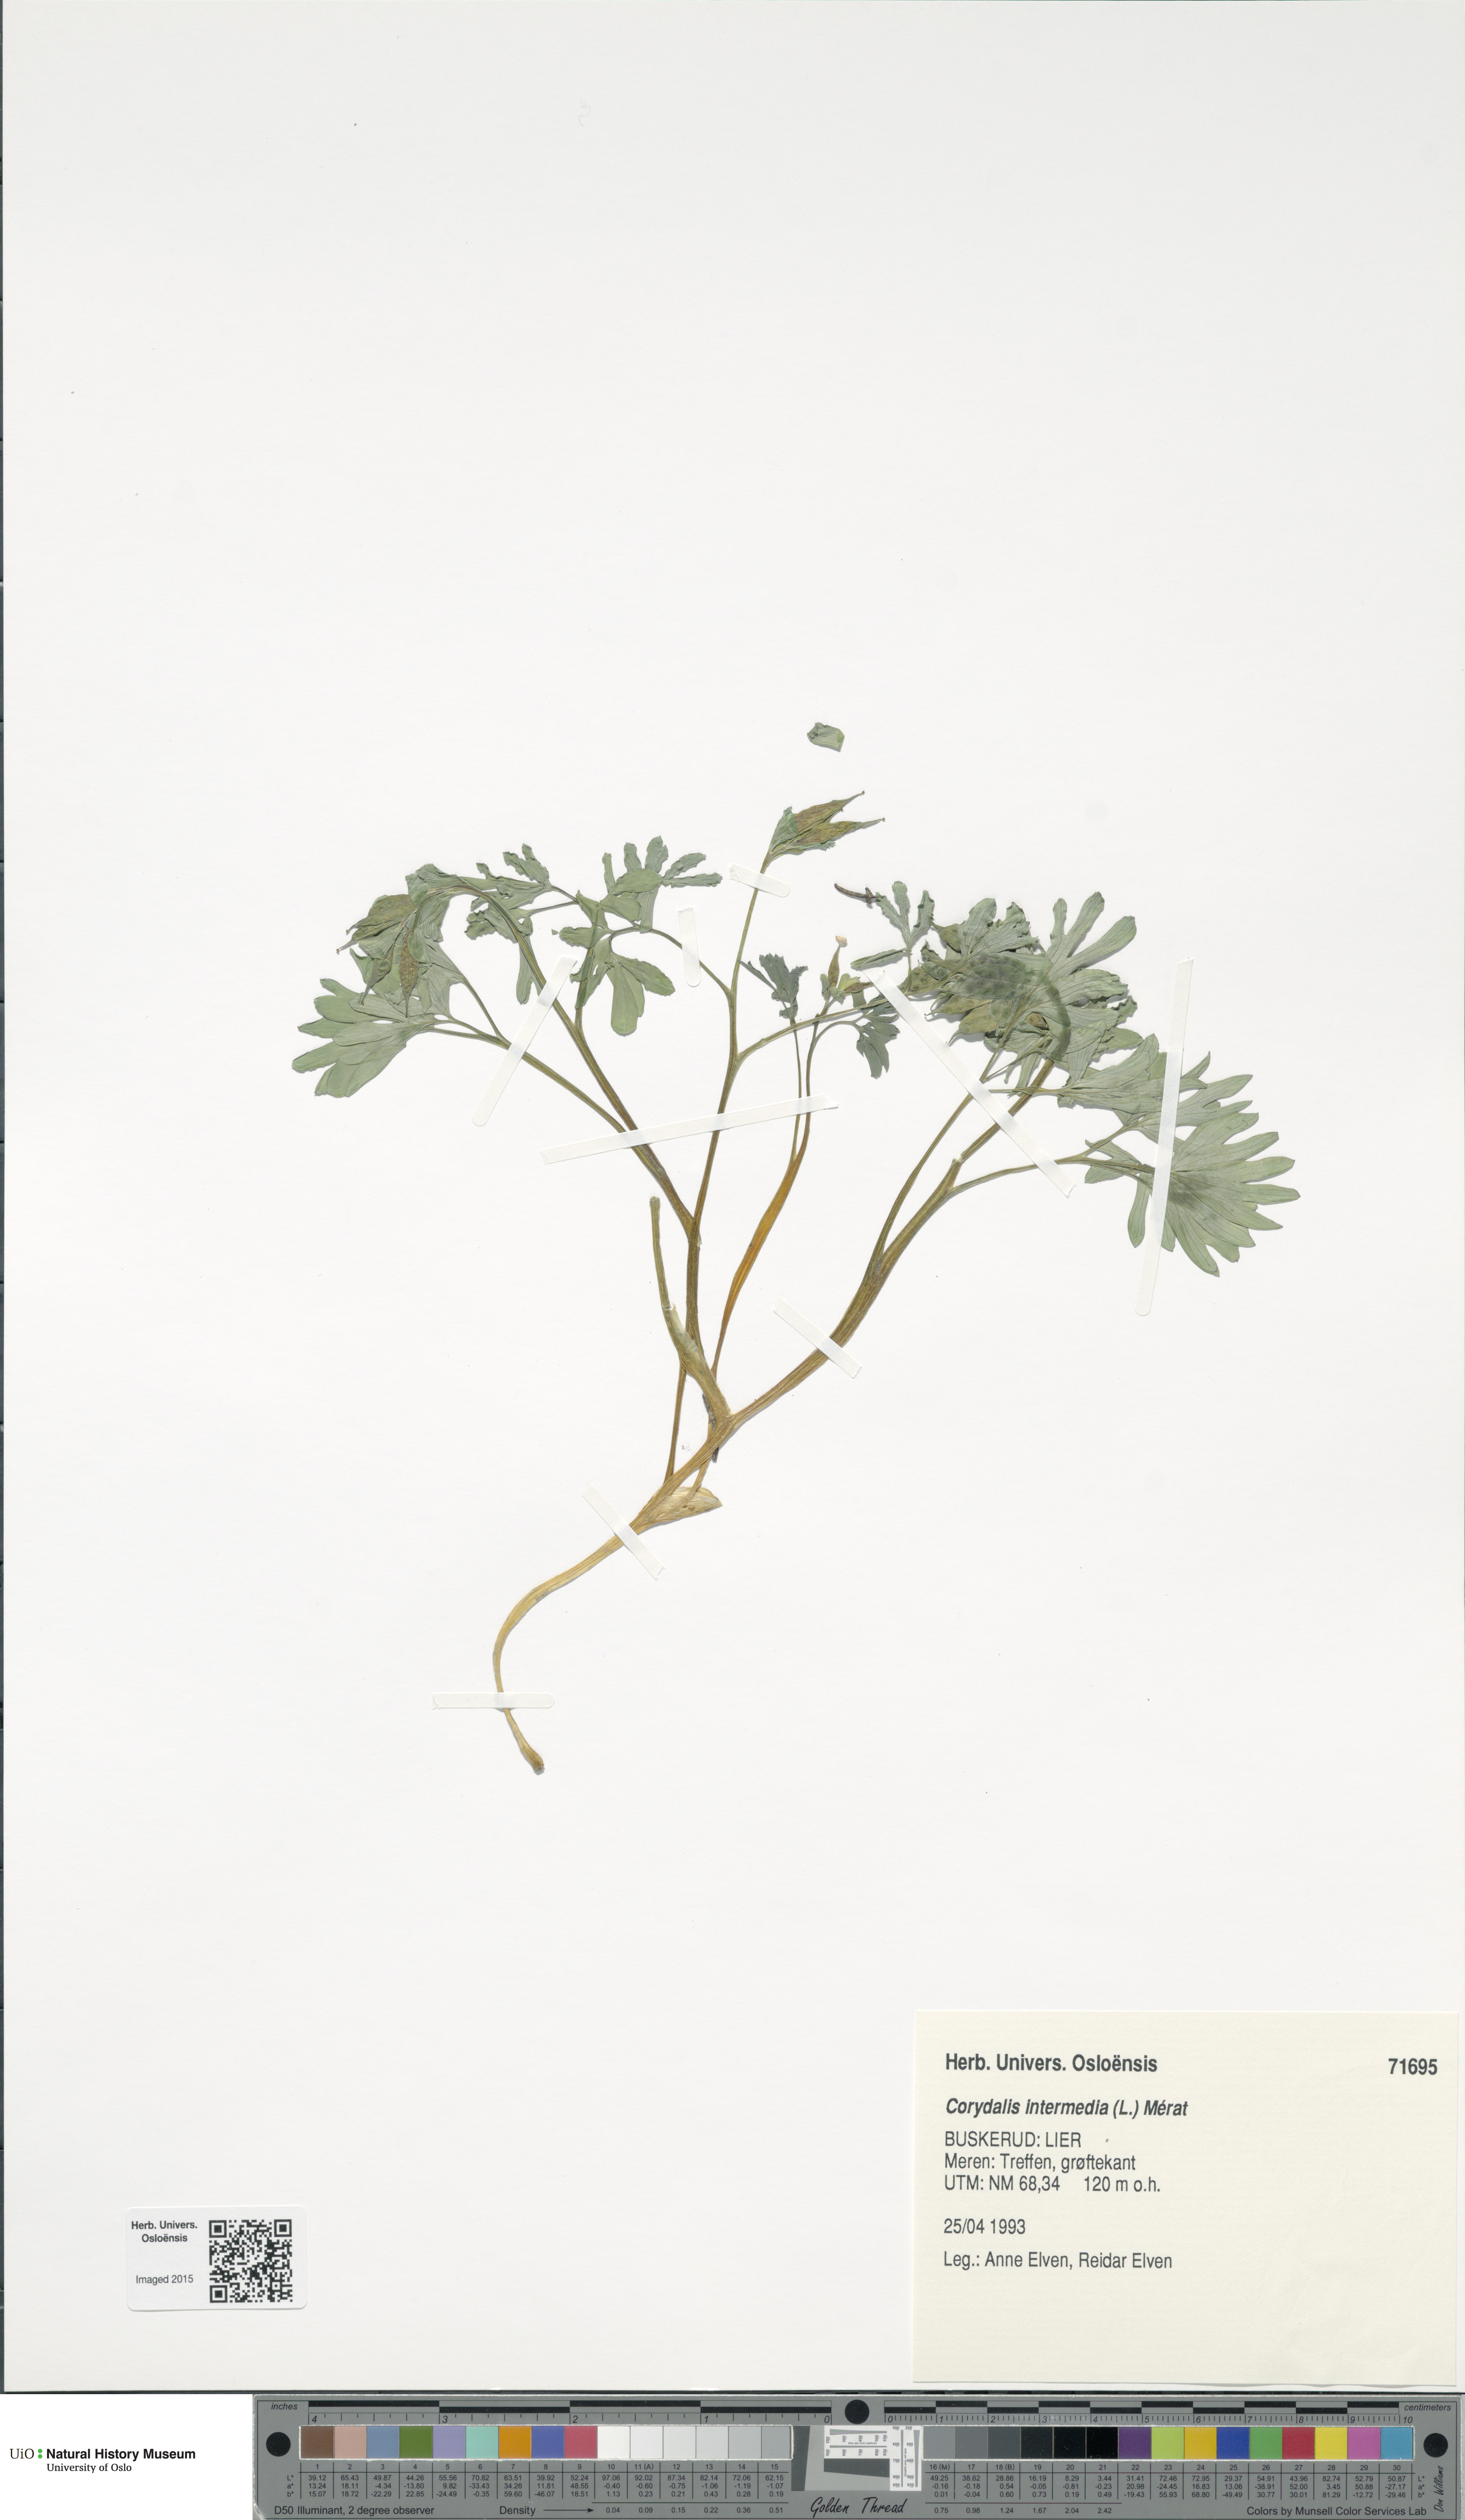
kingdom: Plantae
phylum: Tracheophyta
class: Magnoliopsida
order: Ranunculales
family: Papaveraceae
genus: Corydalis
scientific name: Corydalis intermedia
